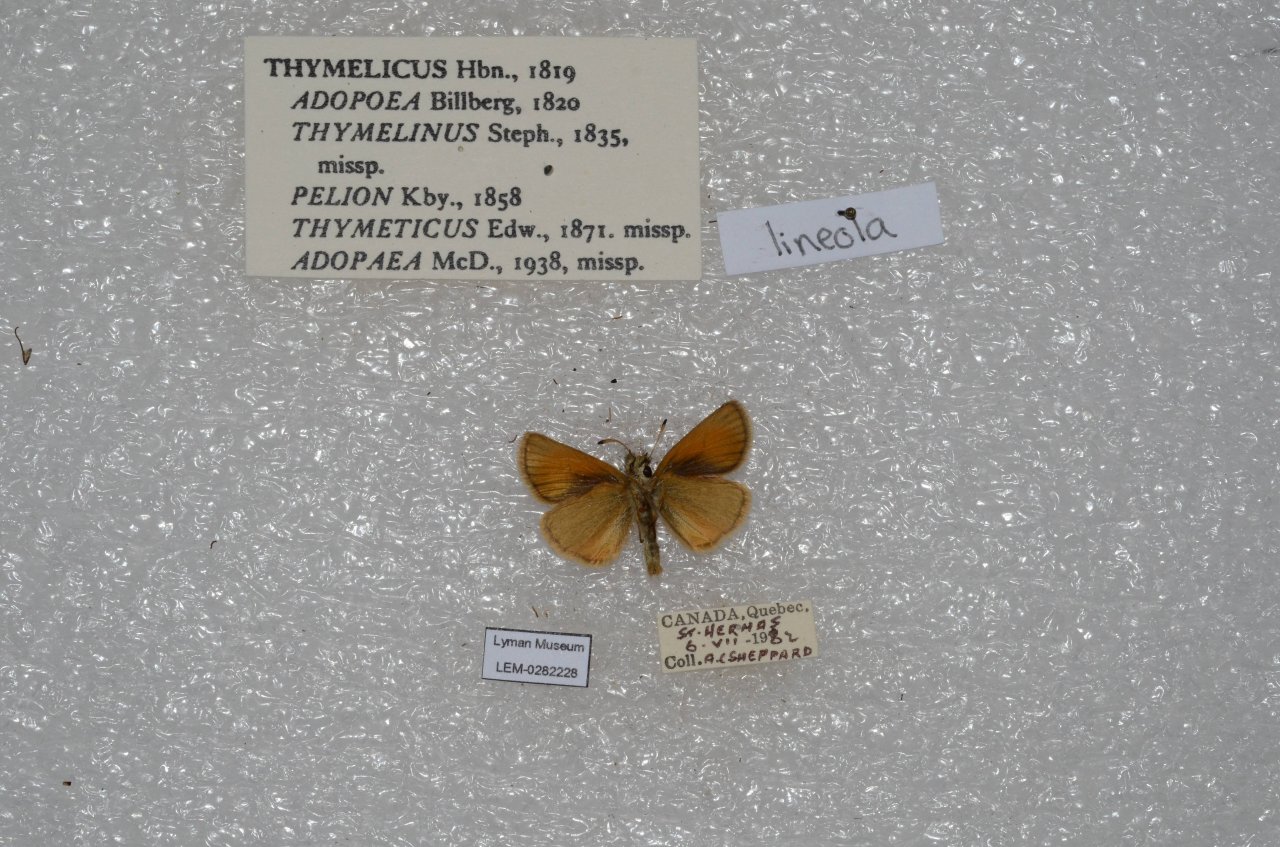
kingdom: Animalia
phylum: Arthropoda
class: Insecta
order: Lepidoptera
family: Hesperiidae
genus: Thymelicus
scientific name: Thymelicus lineola
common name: European Skipper
